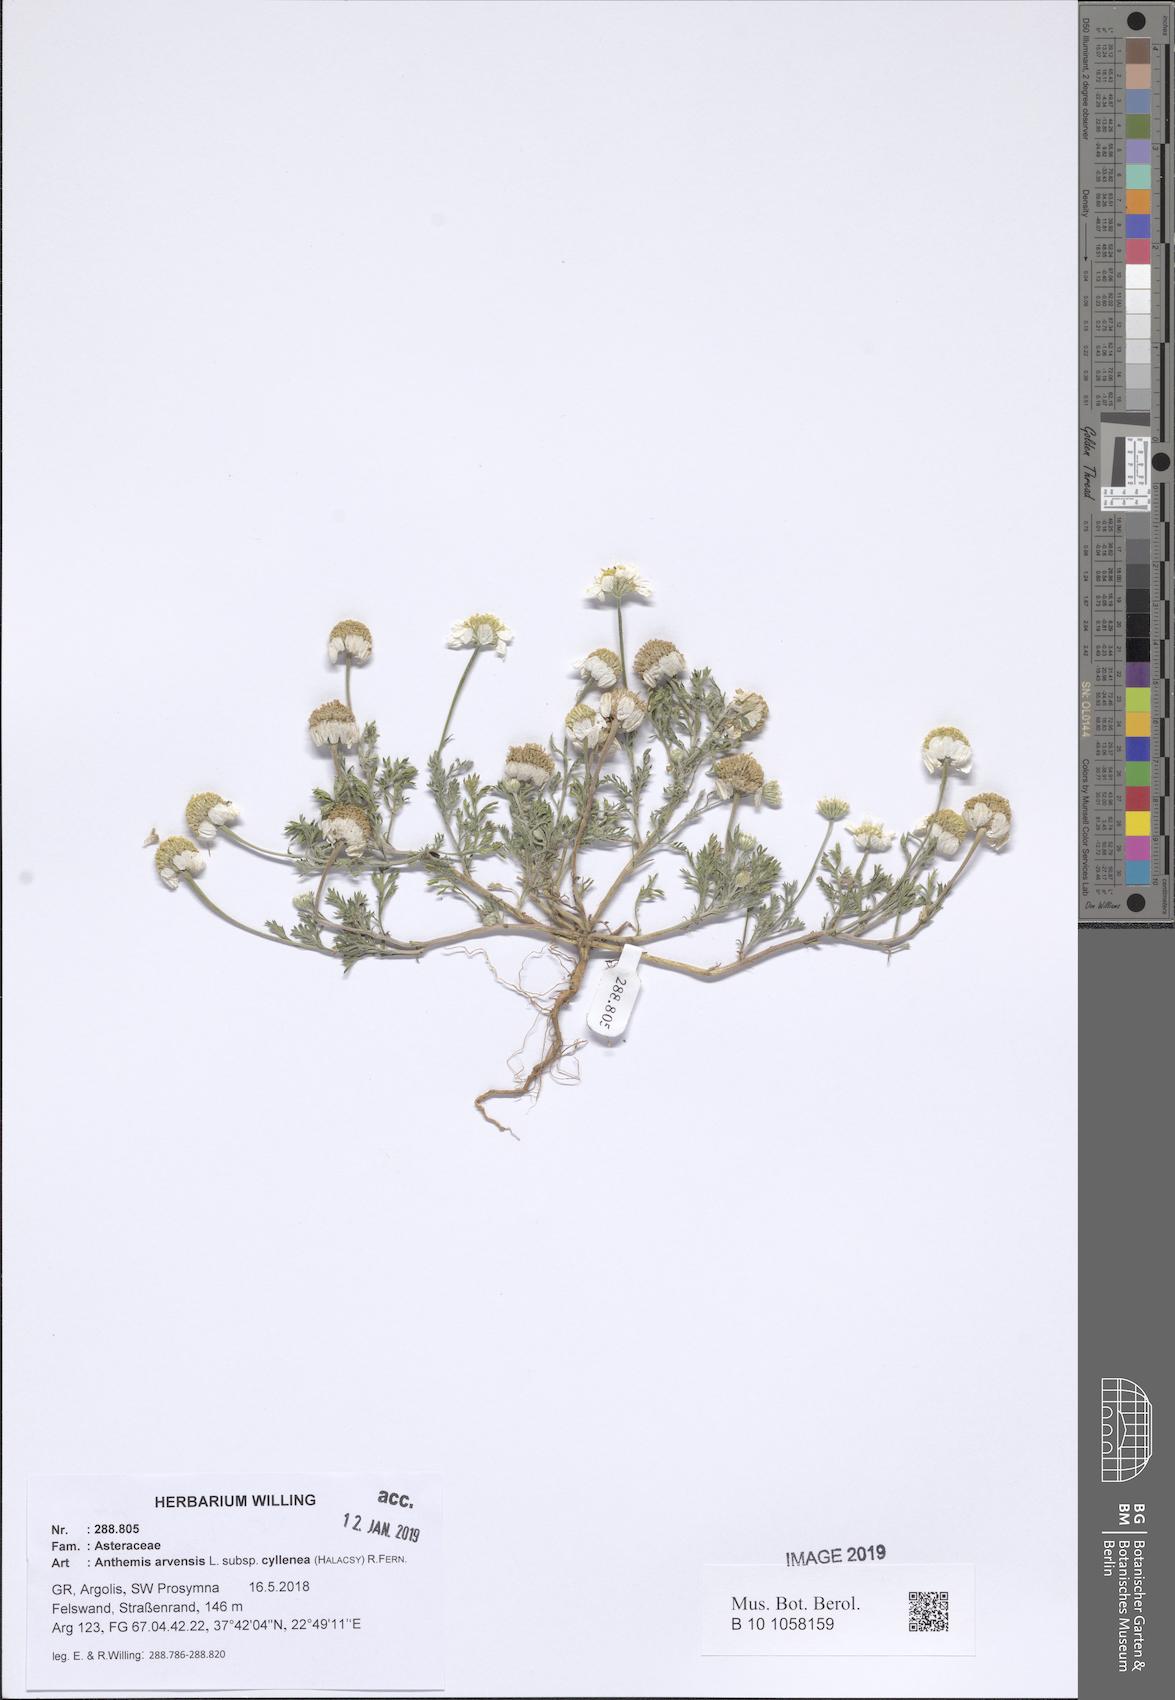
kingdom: Plantae
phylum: Tracheophyta
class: Magnoliopsida
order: Asterales
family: Asteraceae
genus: Anthemis
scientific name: Anthemis arvensis
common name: Corn chamomile
